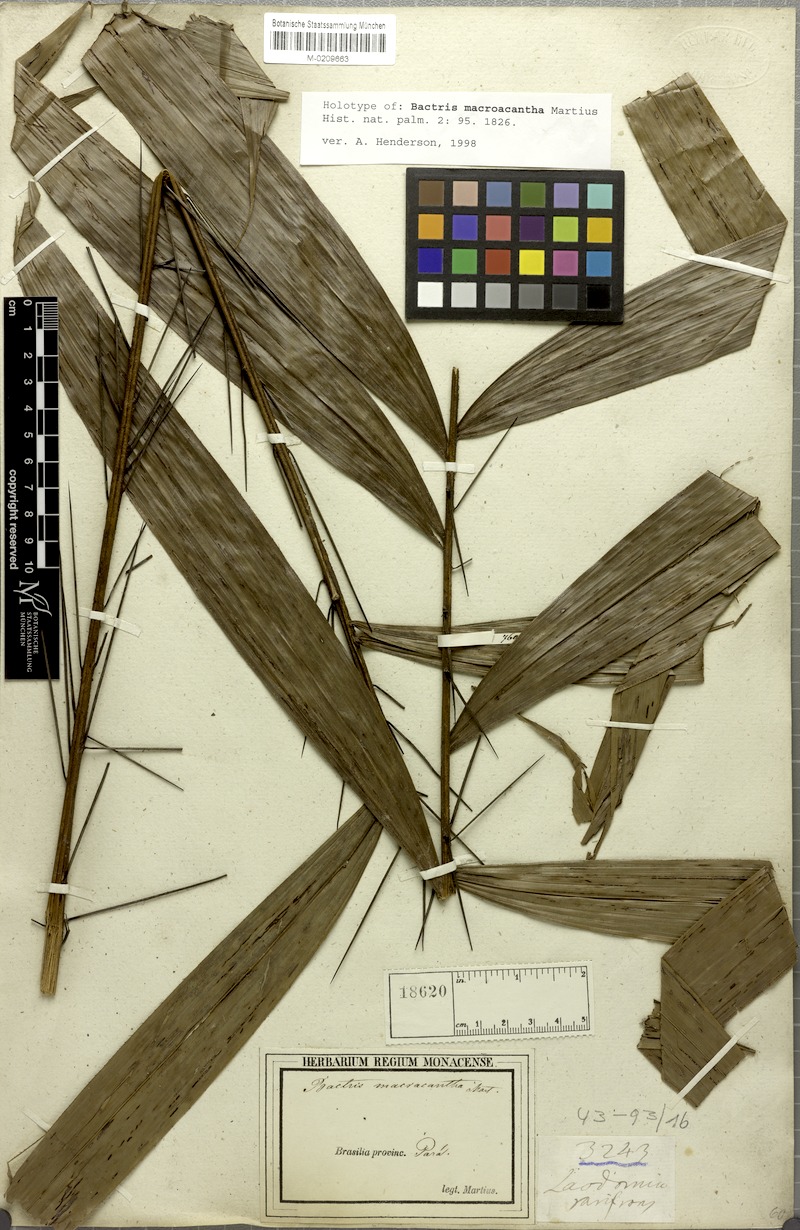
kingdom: Plantae
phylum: Tracheophyta
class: Liliopsida
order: Arecales
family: Arecaceae
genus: Bactris
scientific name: Bactris macroacantha
